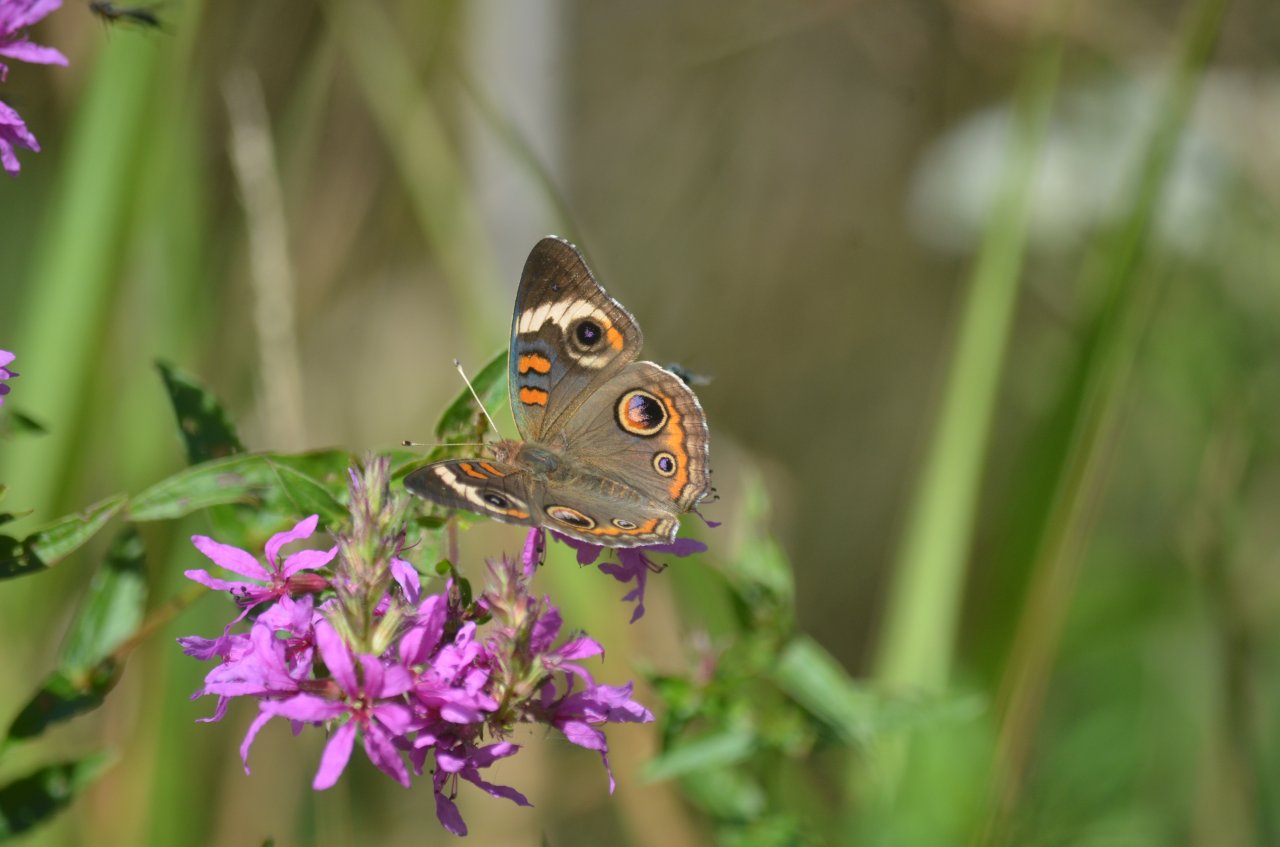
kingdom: Animalia
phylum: Arthropoda
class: Insecta
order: Lepidoptera
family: Nymphalidae
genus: Junonia
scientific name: Junonia coenia
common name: Common Buckeye
